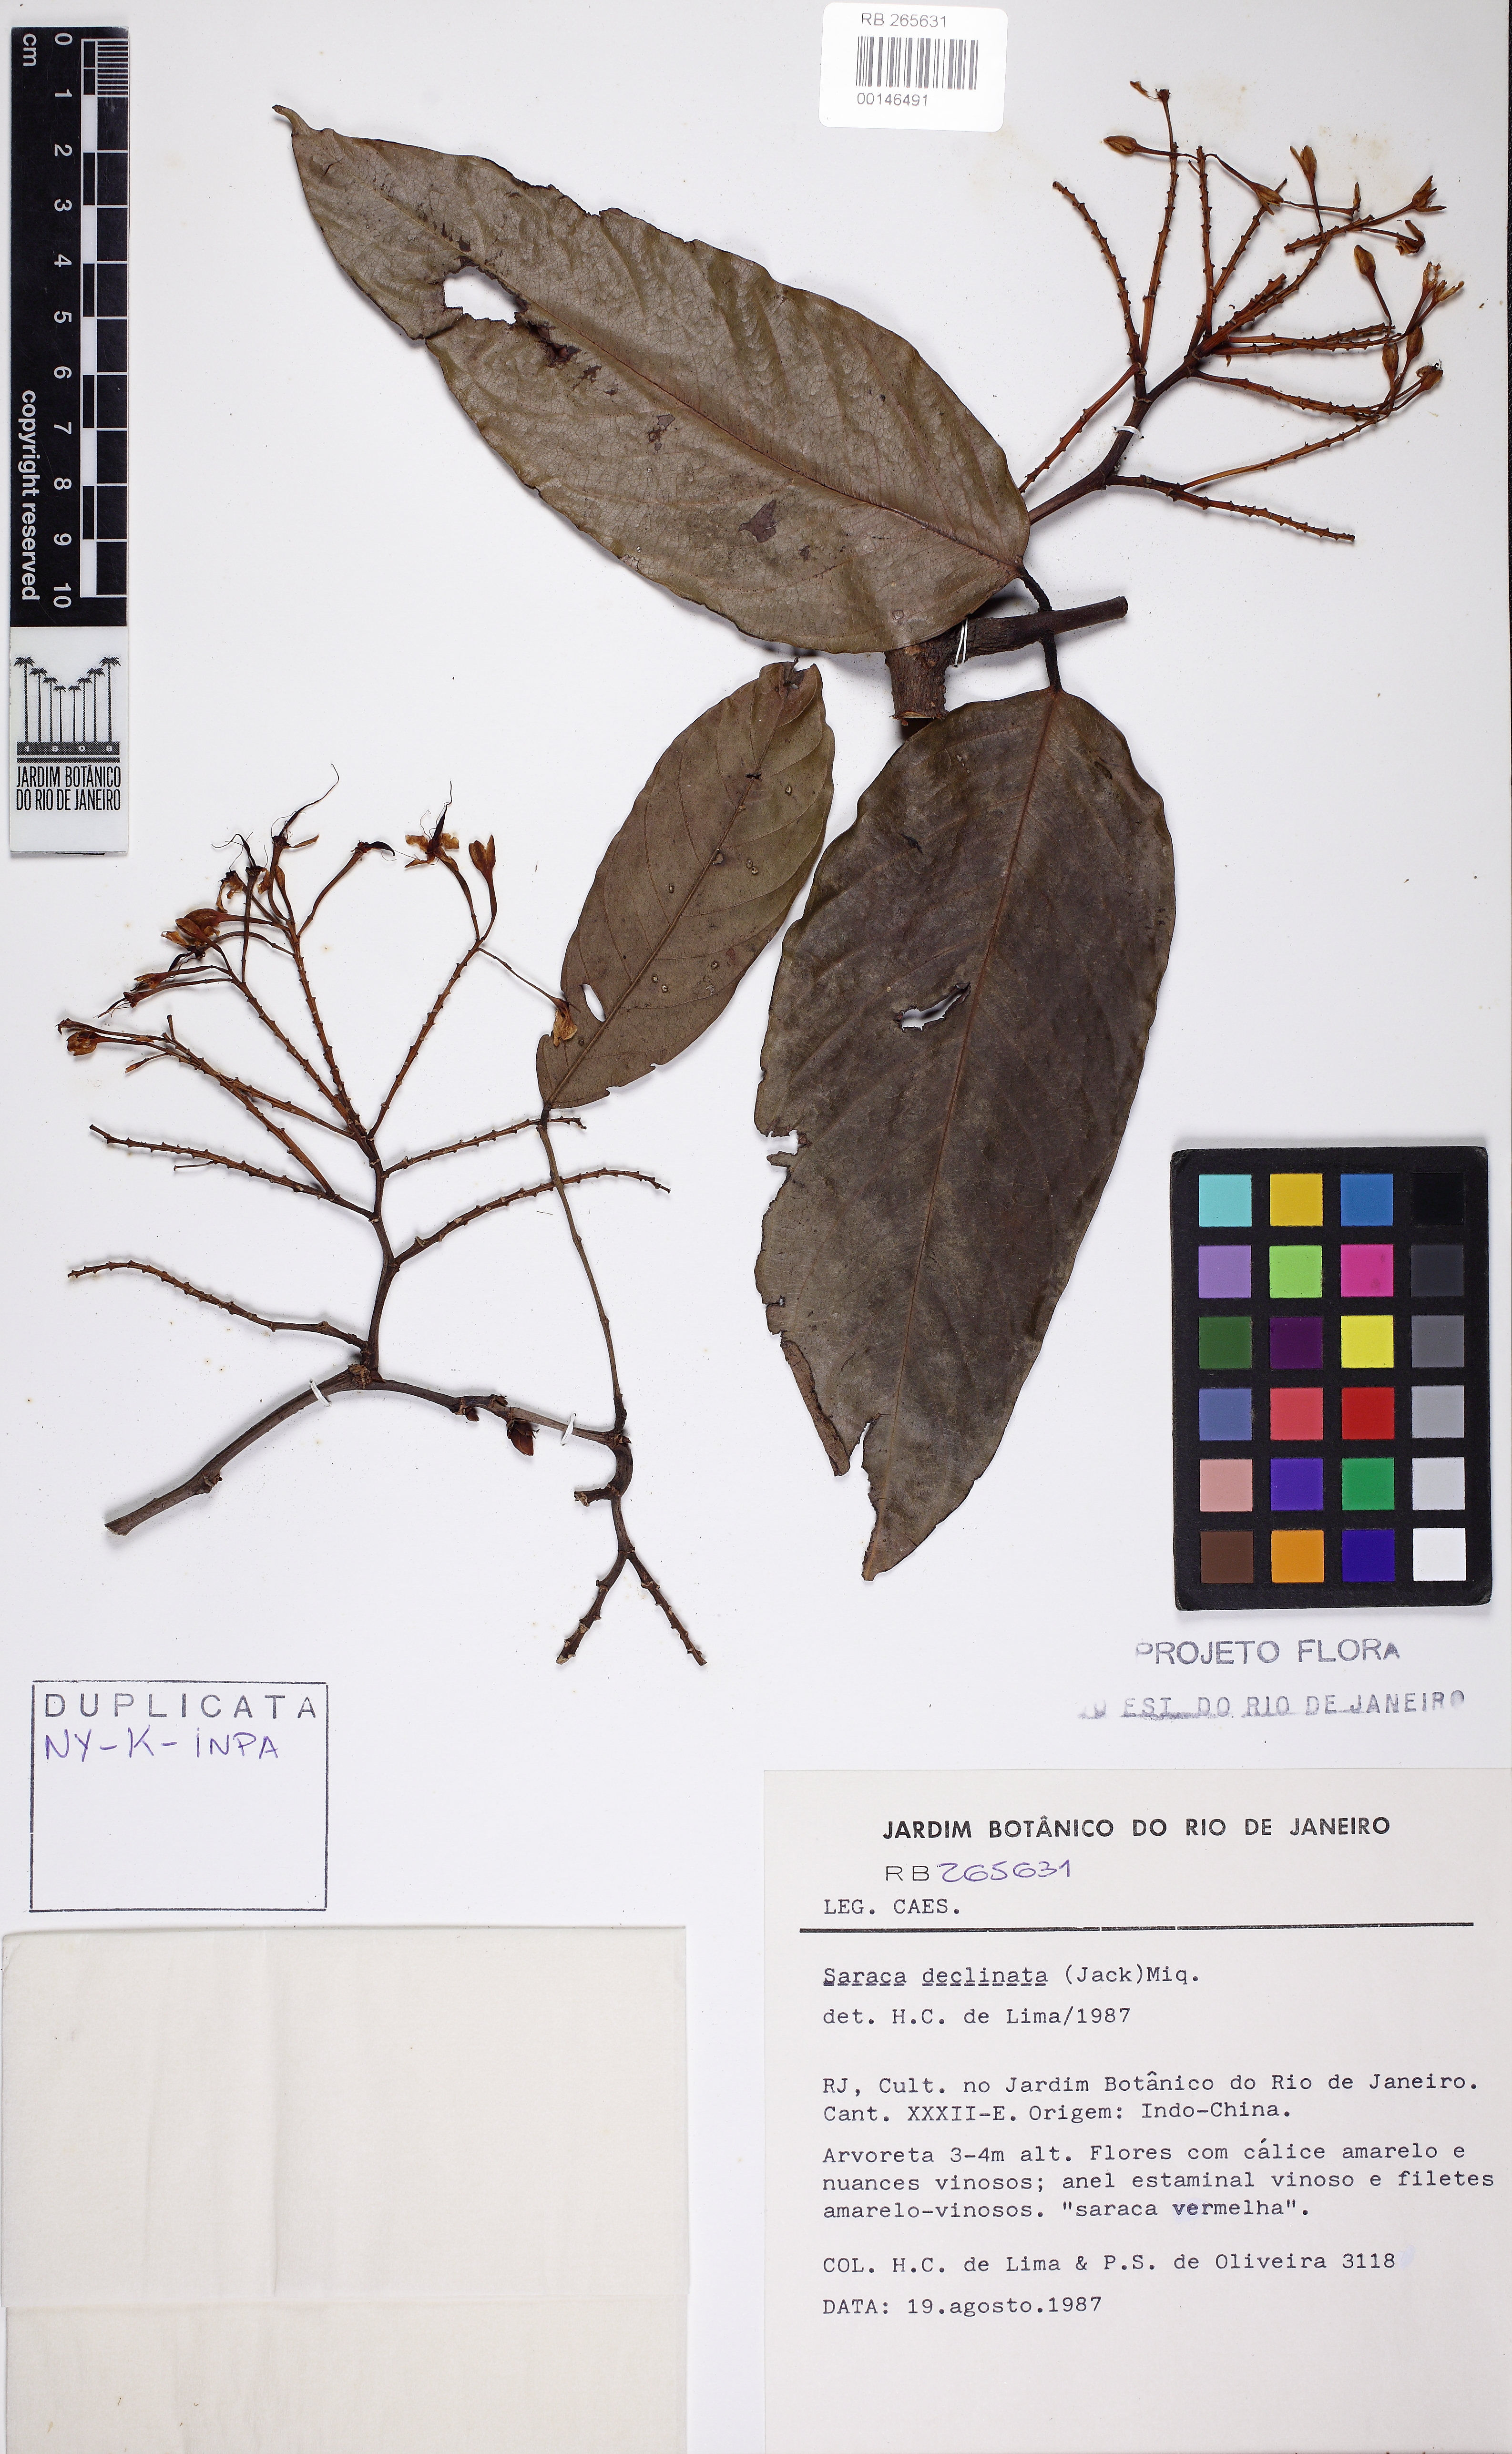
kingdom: Plantae
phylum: Tracheophyta
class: Magnoliopsida
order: Fabales
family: Fabaceae
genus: Saraca
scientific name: Saraca declinata
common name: Red saraca
